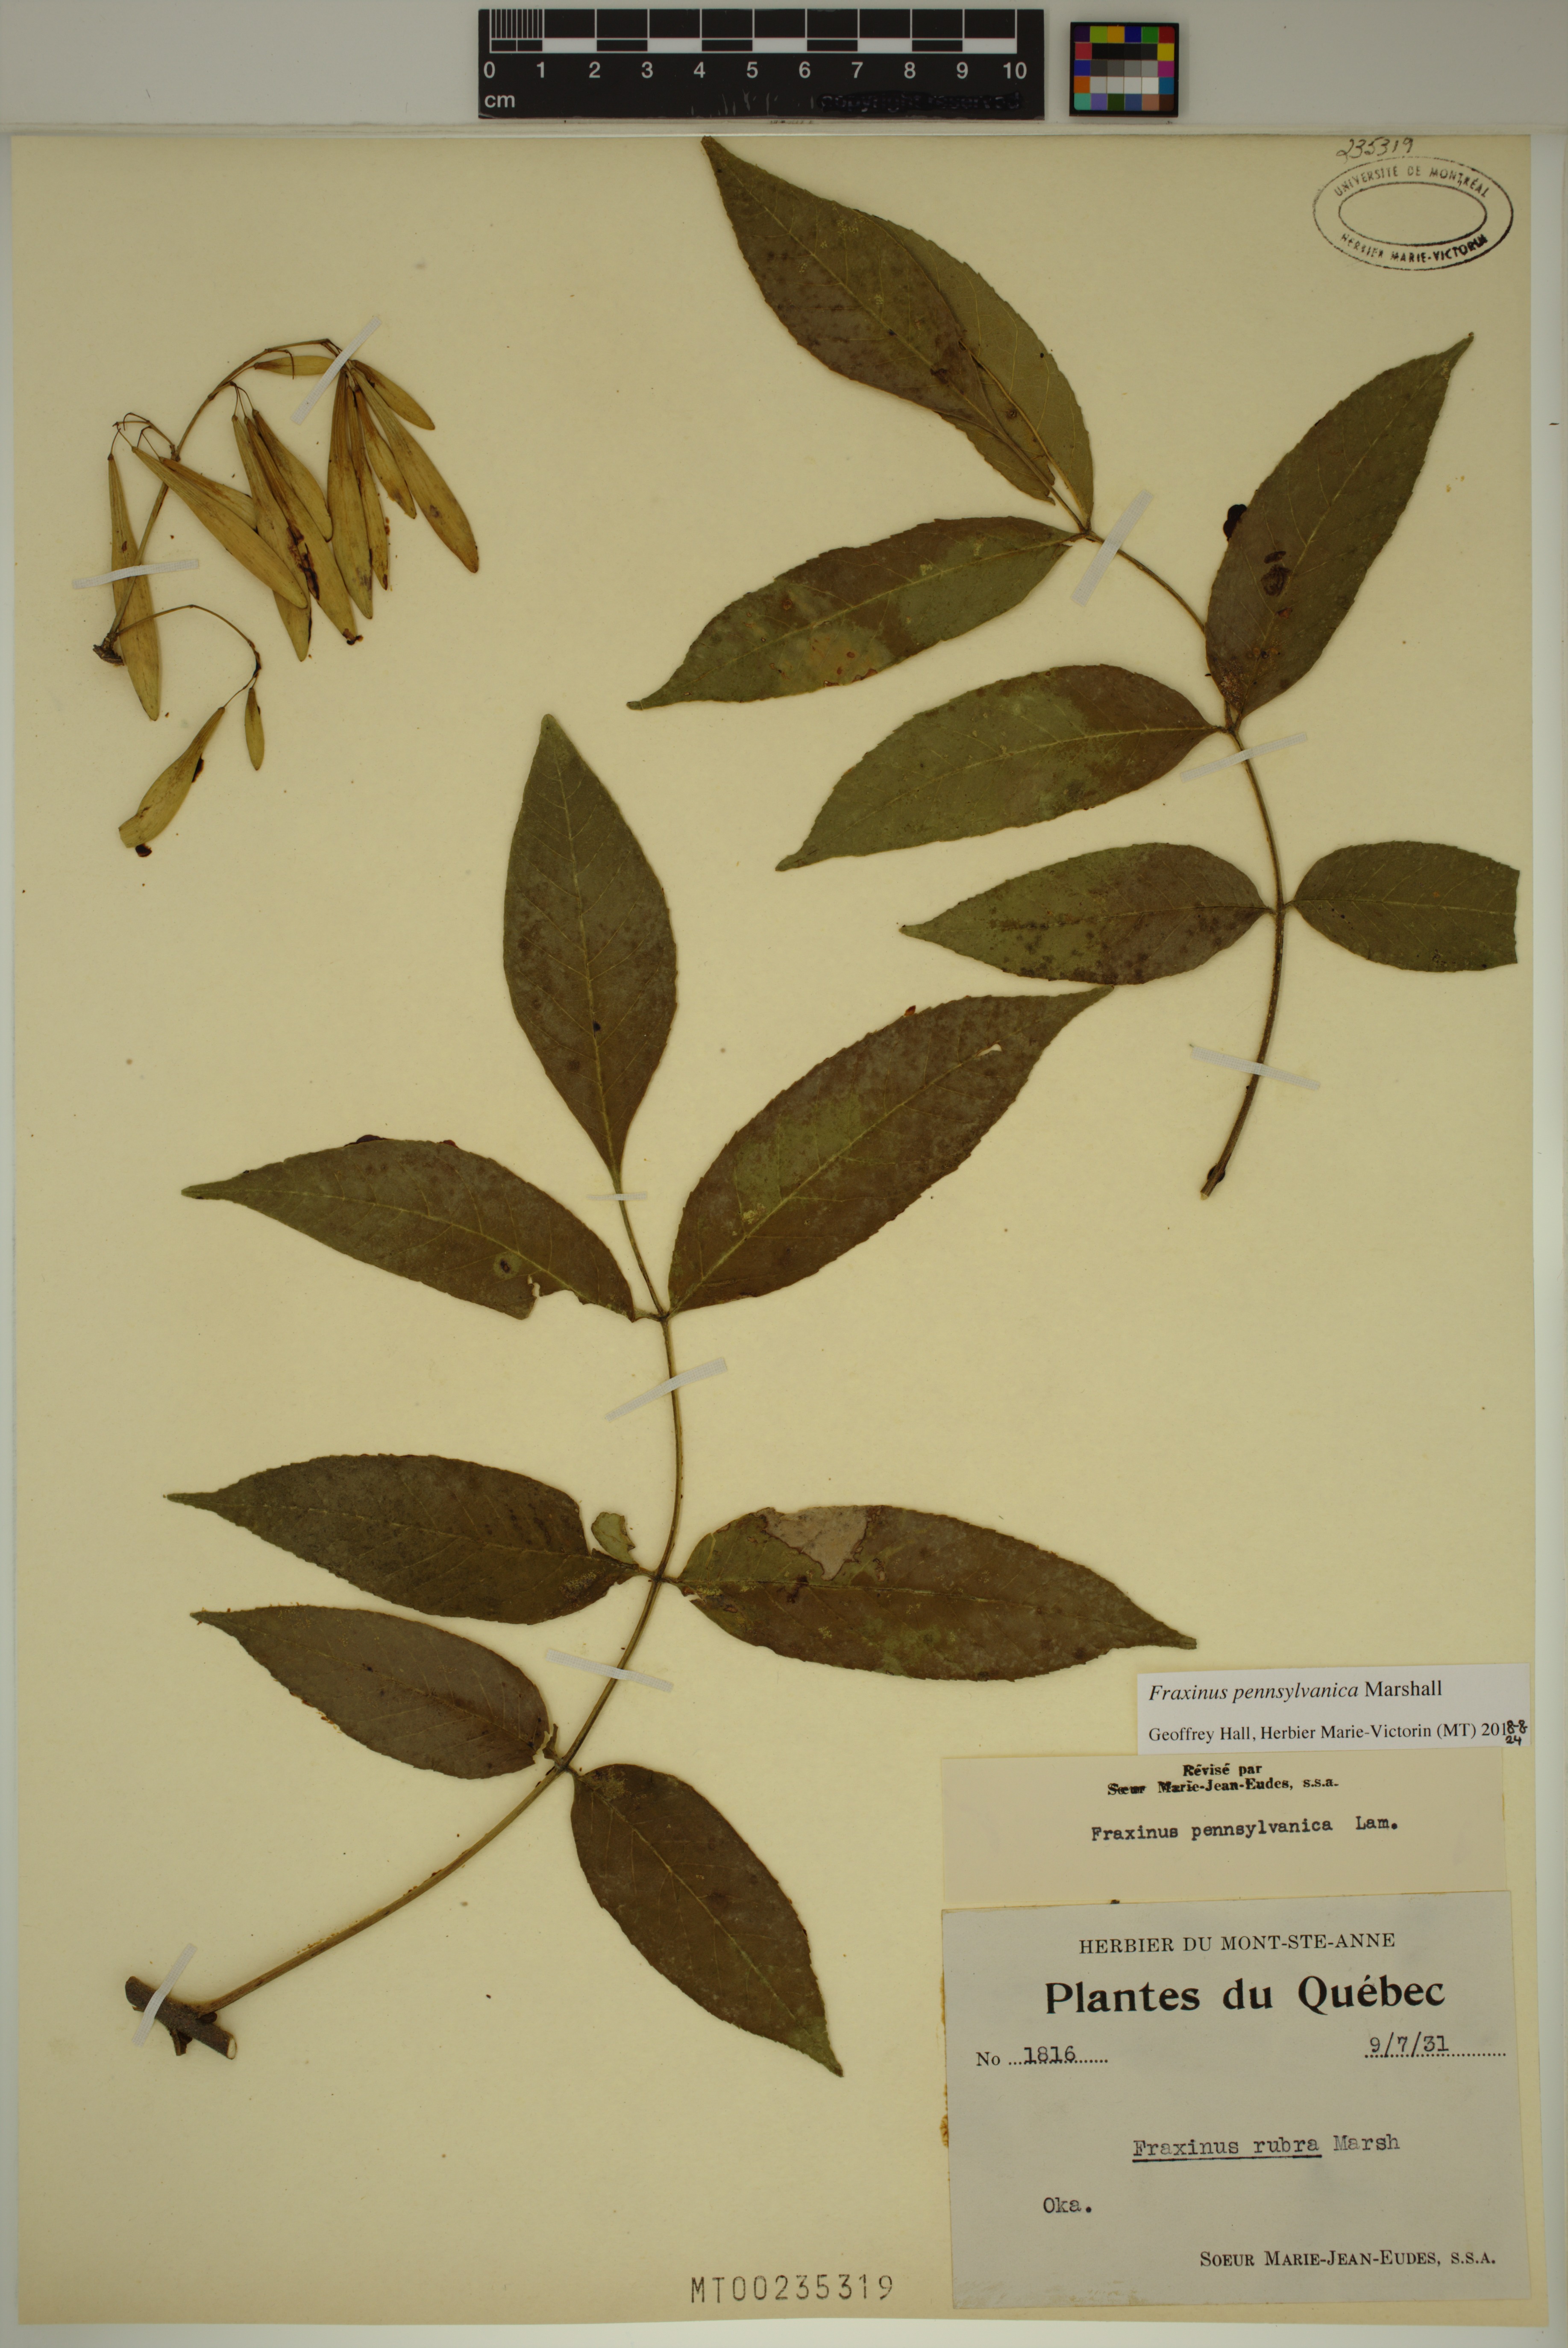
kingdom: Plantae
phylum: Tracheophyta
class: Magnoliopsida
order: Lamiales
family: Oleaceae
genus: Fraxinus
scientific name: Fraxinus pennsylvanica
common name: Green ash
